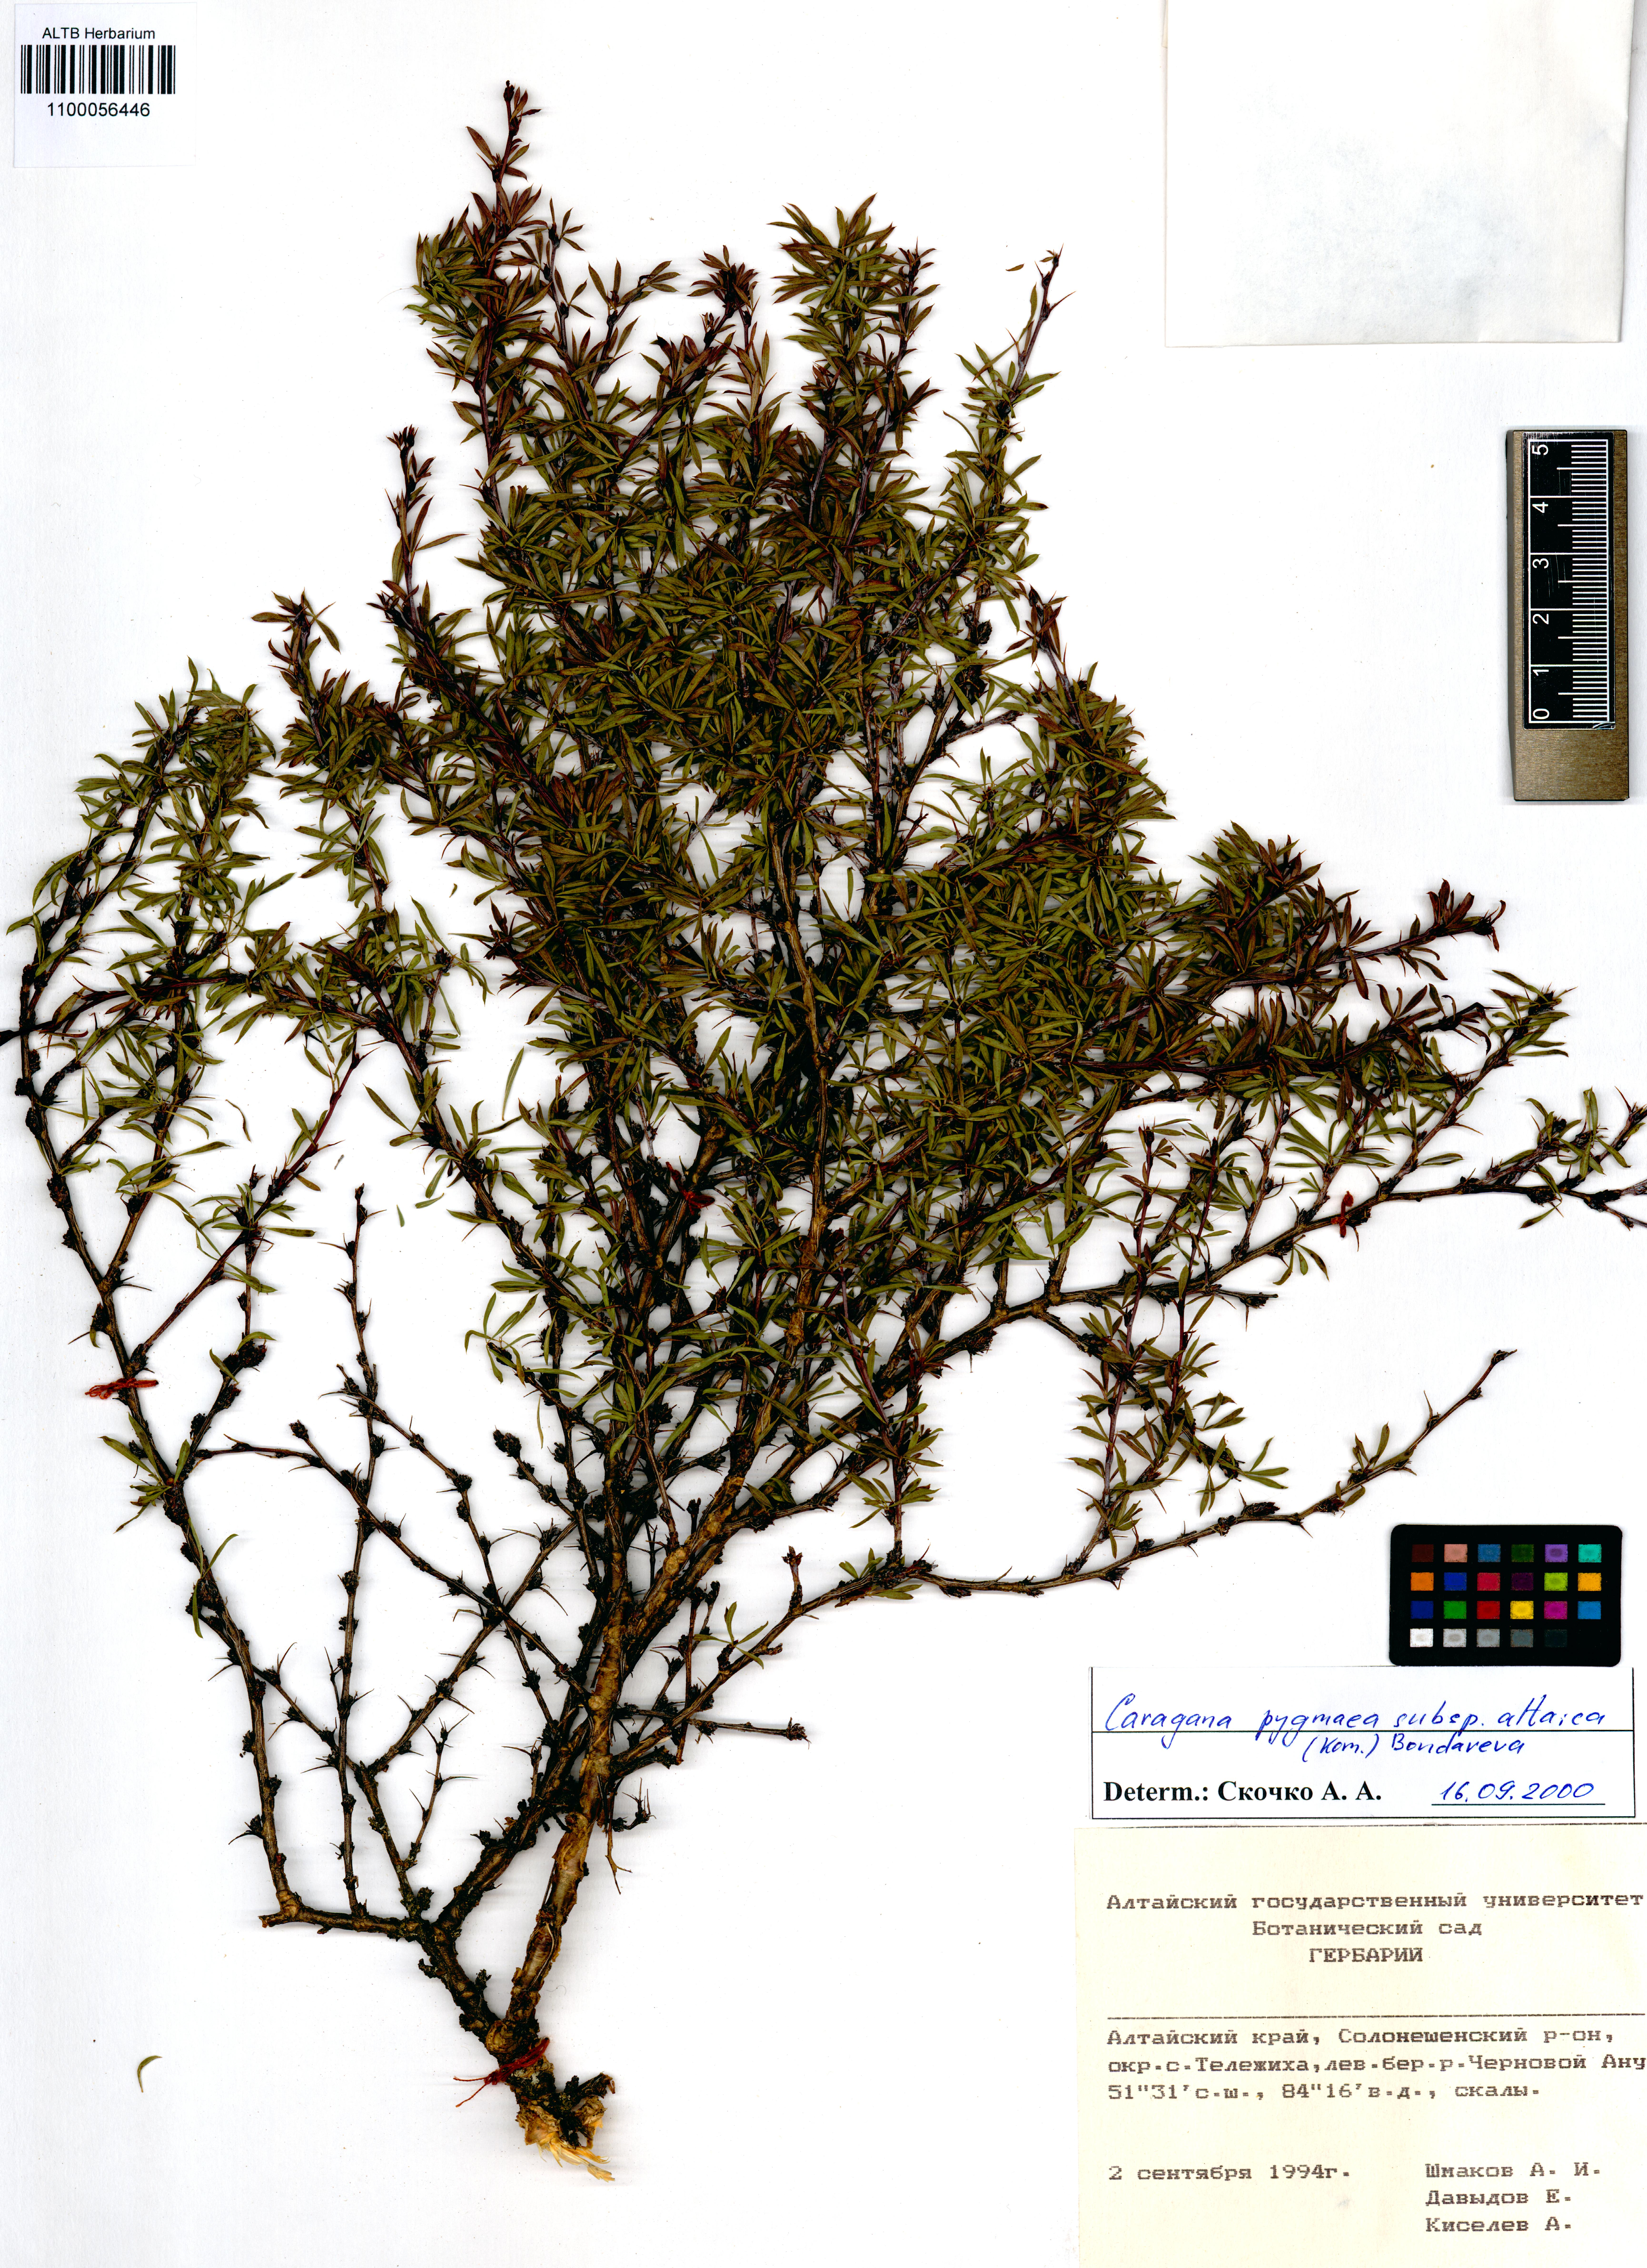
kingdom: Plantae
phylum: Tracheophyta
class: Magnoliopsida
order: Fabales
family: Fabaceae
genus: Caragana
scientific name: Caragana pygmaea
